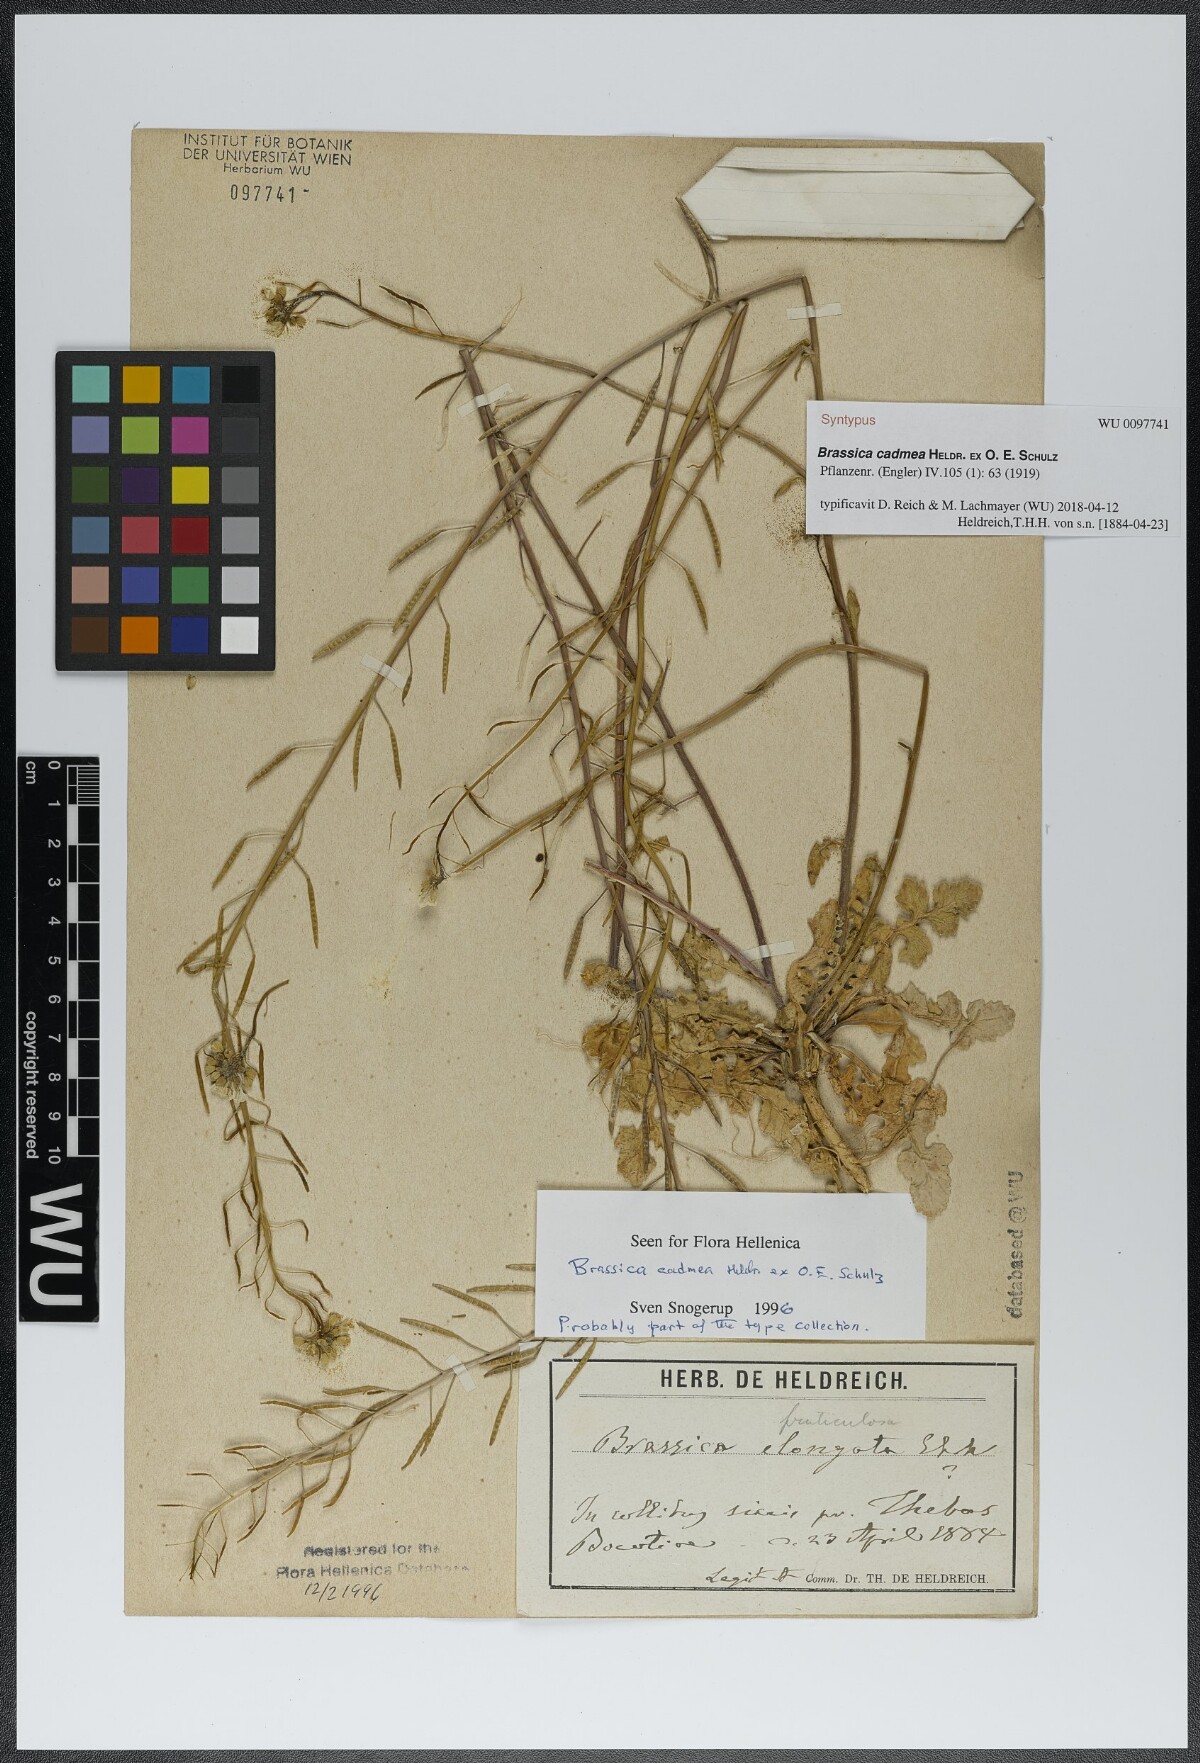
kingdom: Plantae
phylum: Tracheophyta
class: Magnoliopsida
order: Brassicales
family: Brassicaceae
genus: Brassica
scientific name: Brassica cadmea
